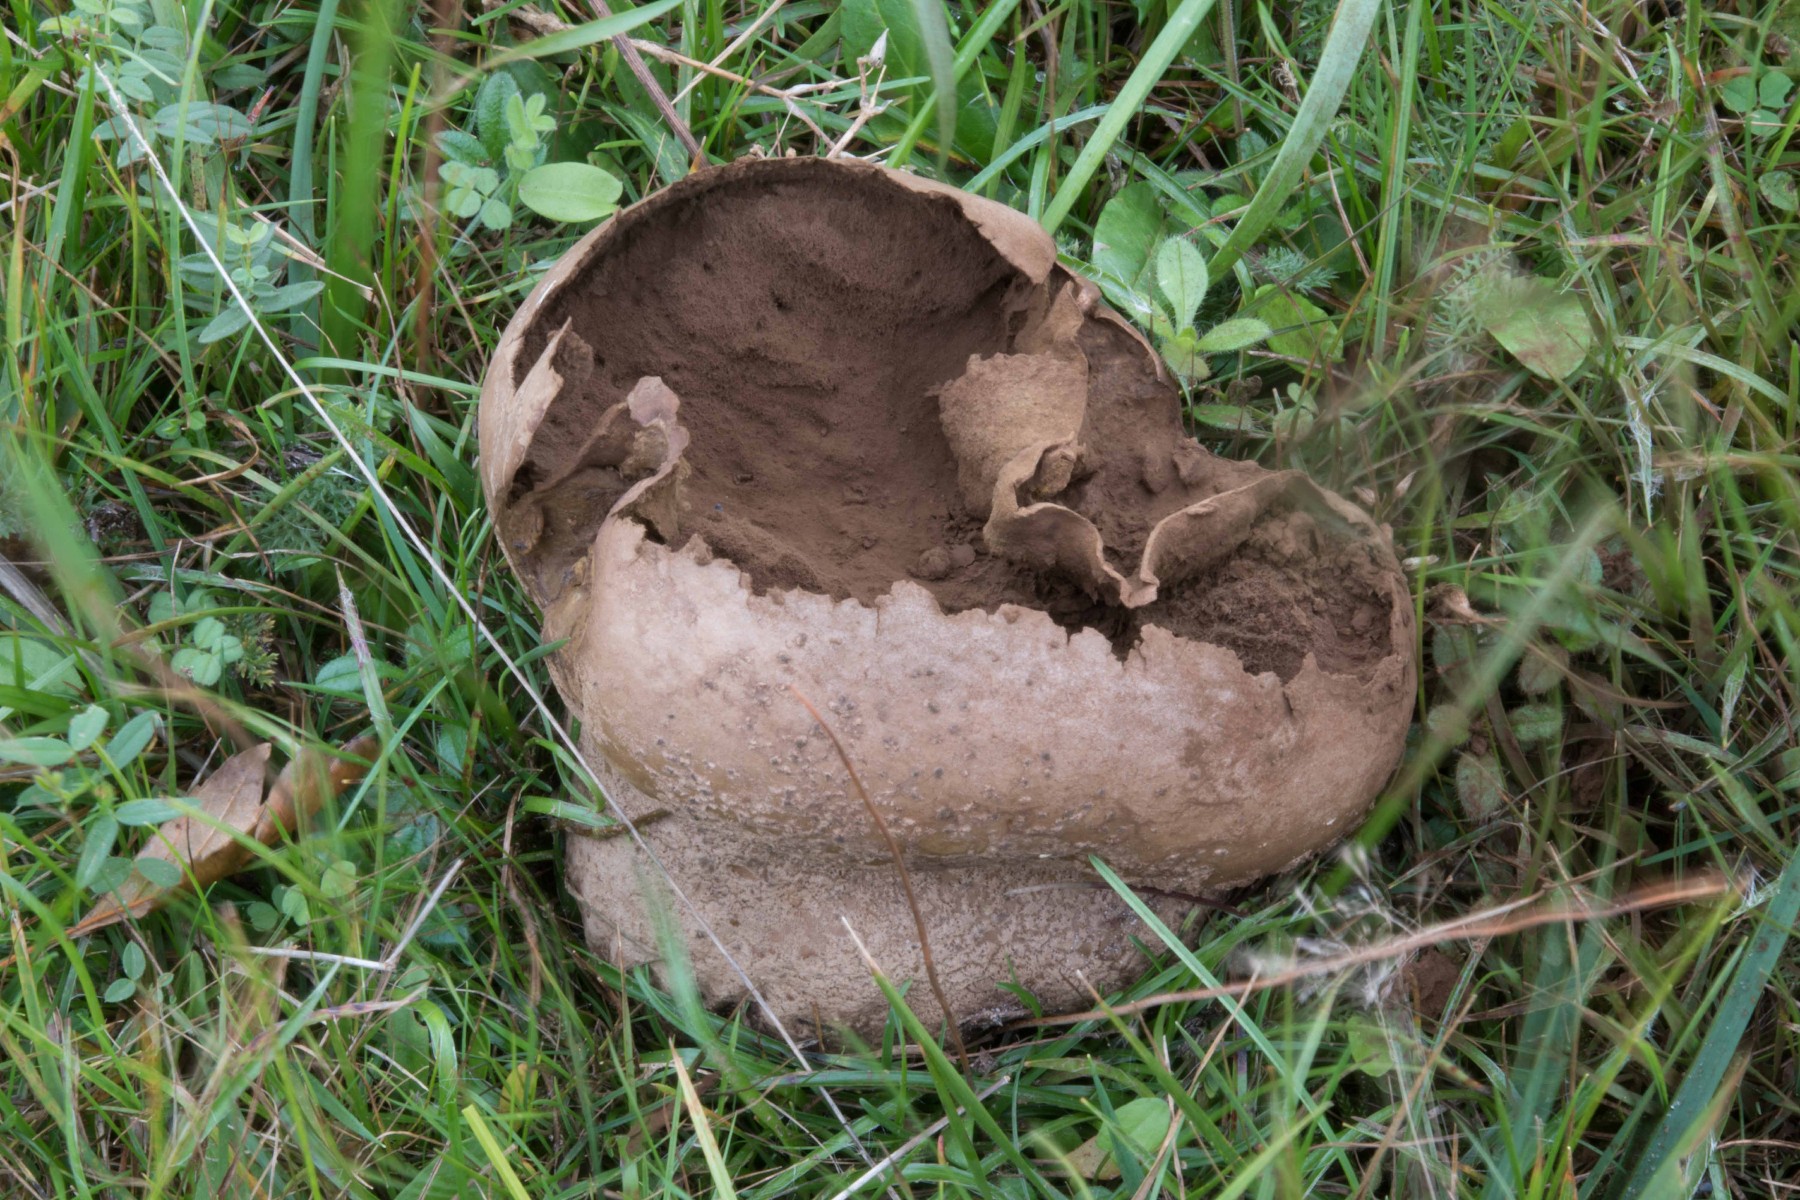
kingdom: Fungi
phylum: Basidiomycota
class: Agaricomycetes
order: Agaricales
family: Lycoperdaceae
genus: Bovistella
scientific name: Bovistella utriformis
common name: skællet støvbold
